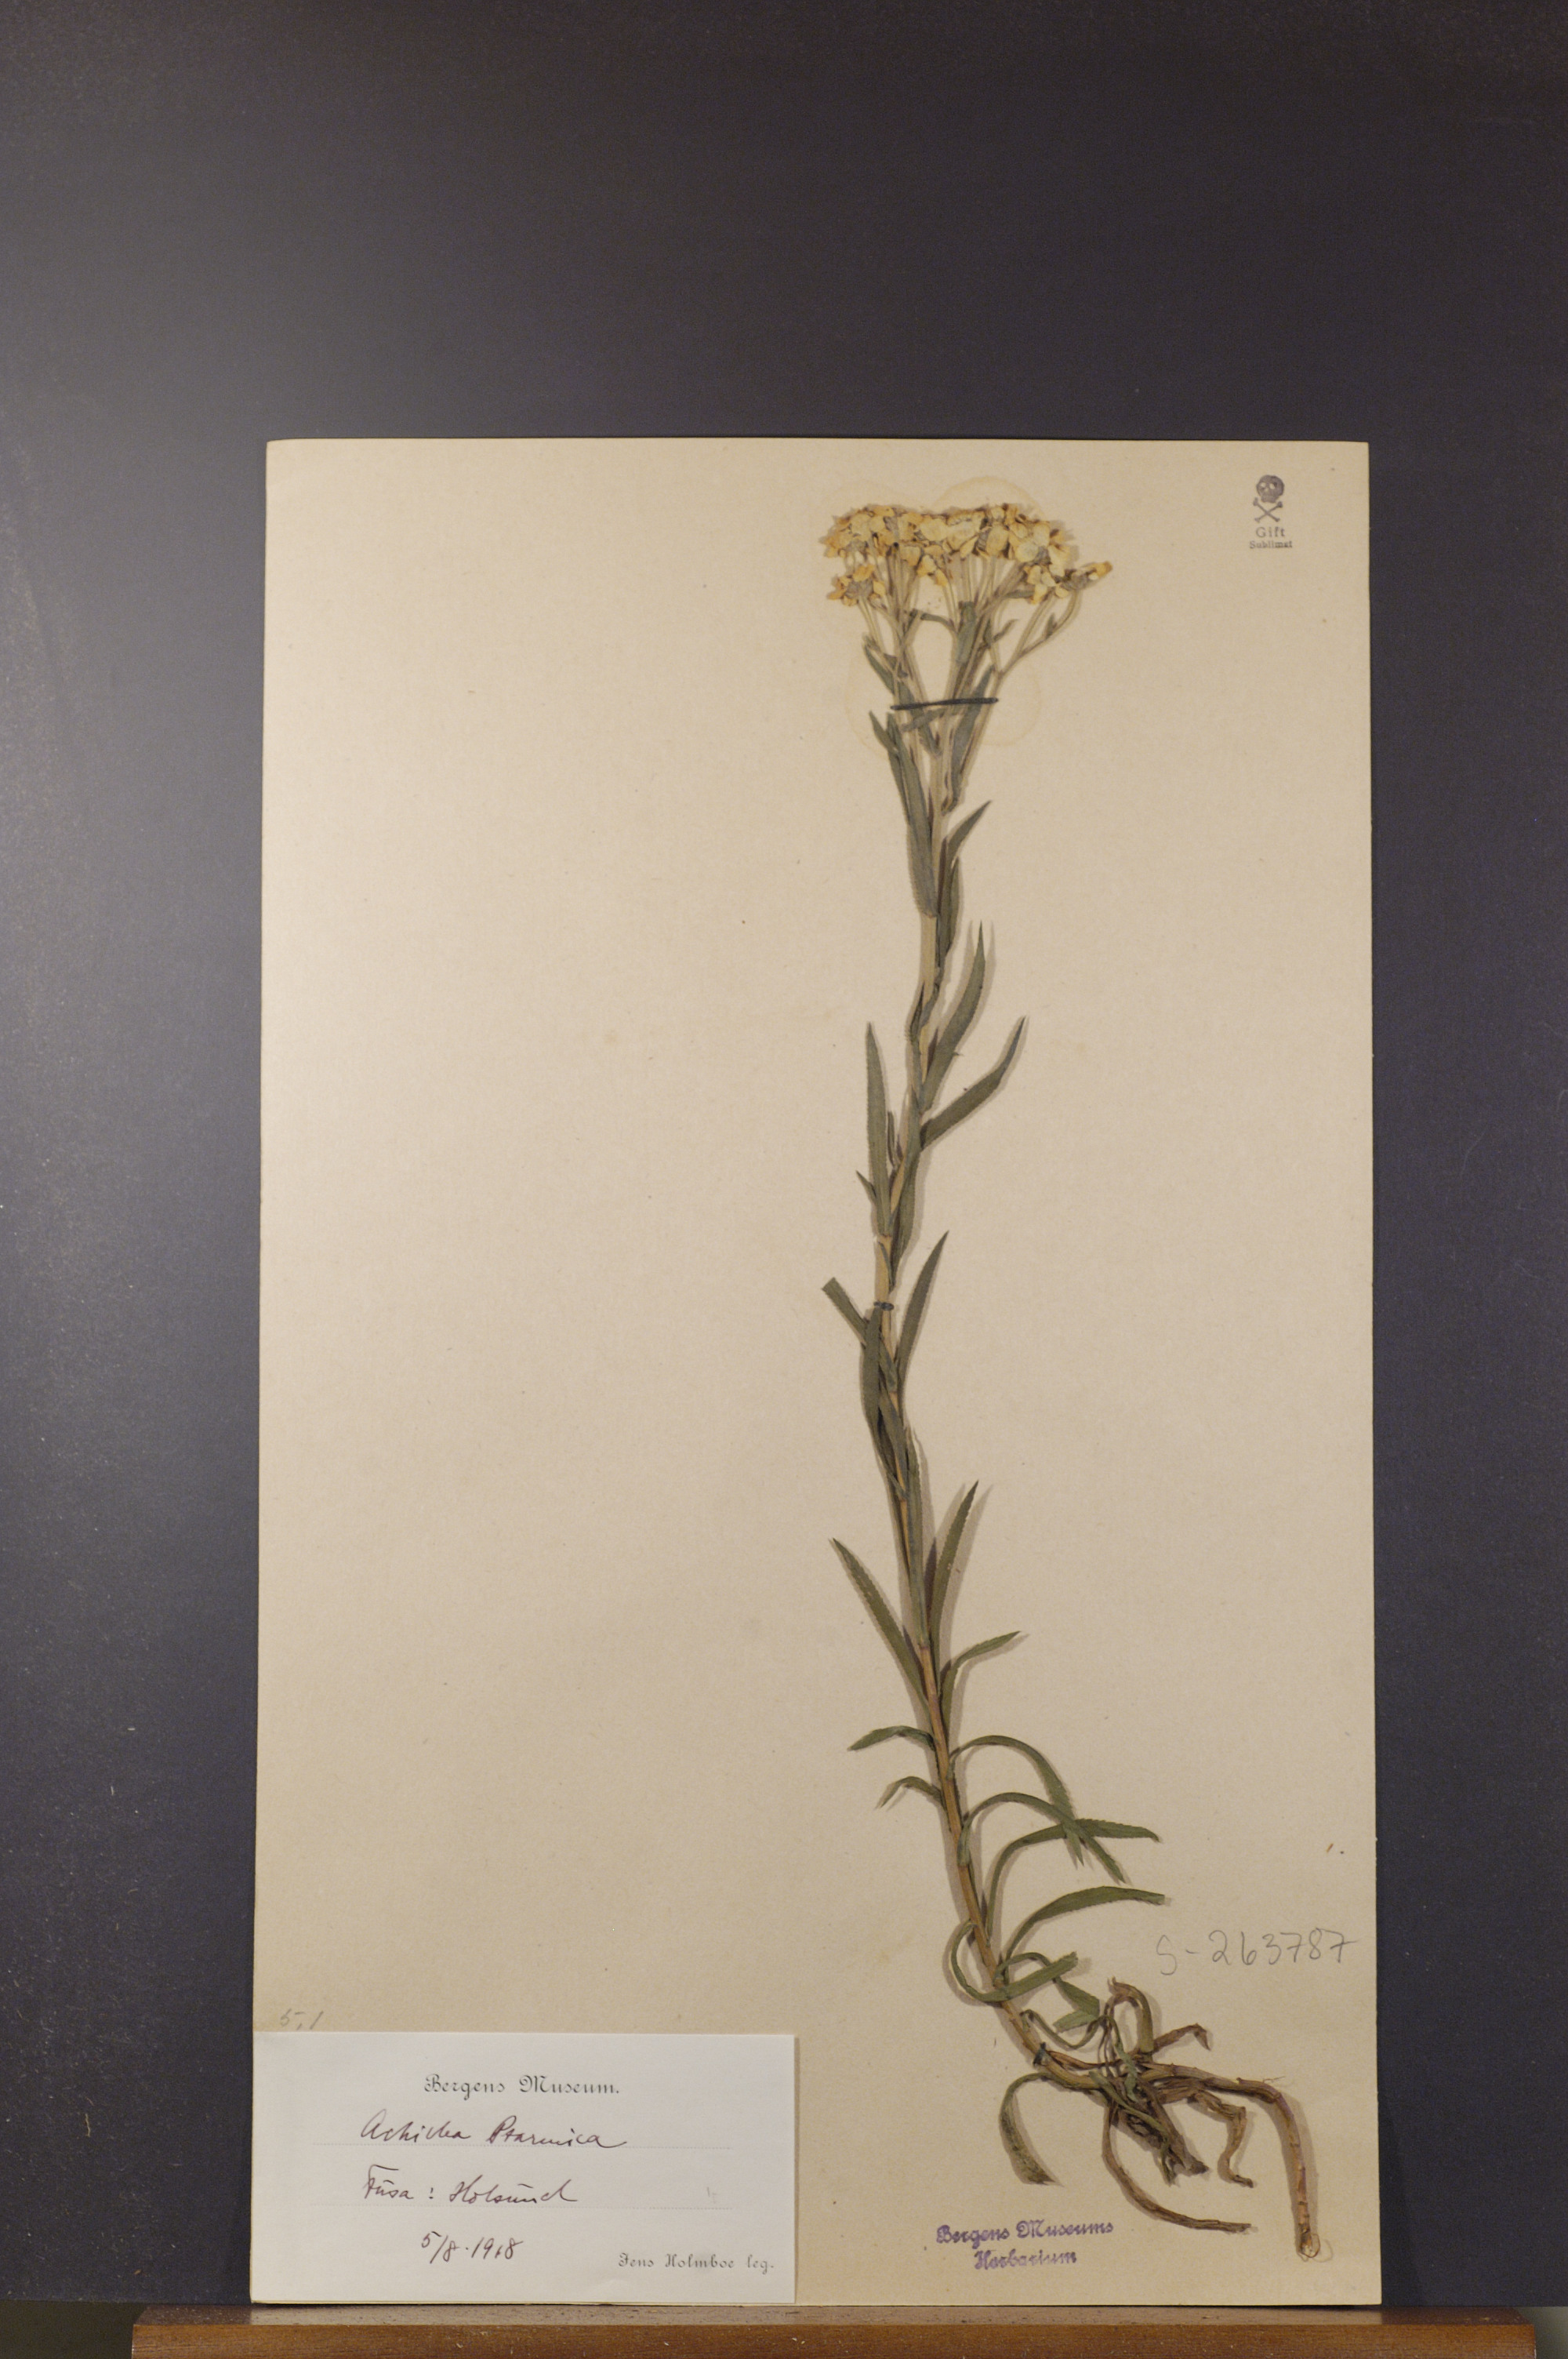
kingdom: Plantae
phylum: Tracheophyta
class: Magnoliopsida
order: Asterales
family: Asteraceae
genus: Achillea
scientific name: Achillea ptarmica
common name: Sneezeweed
